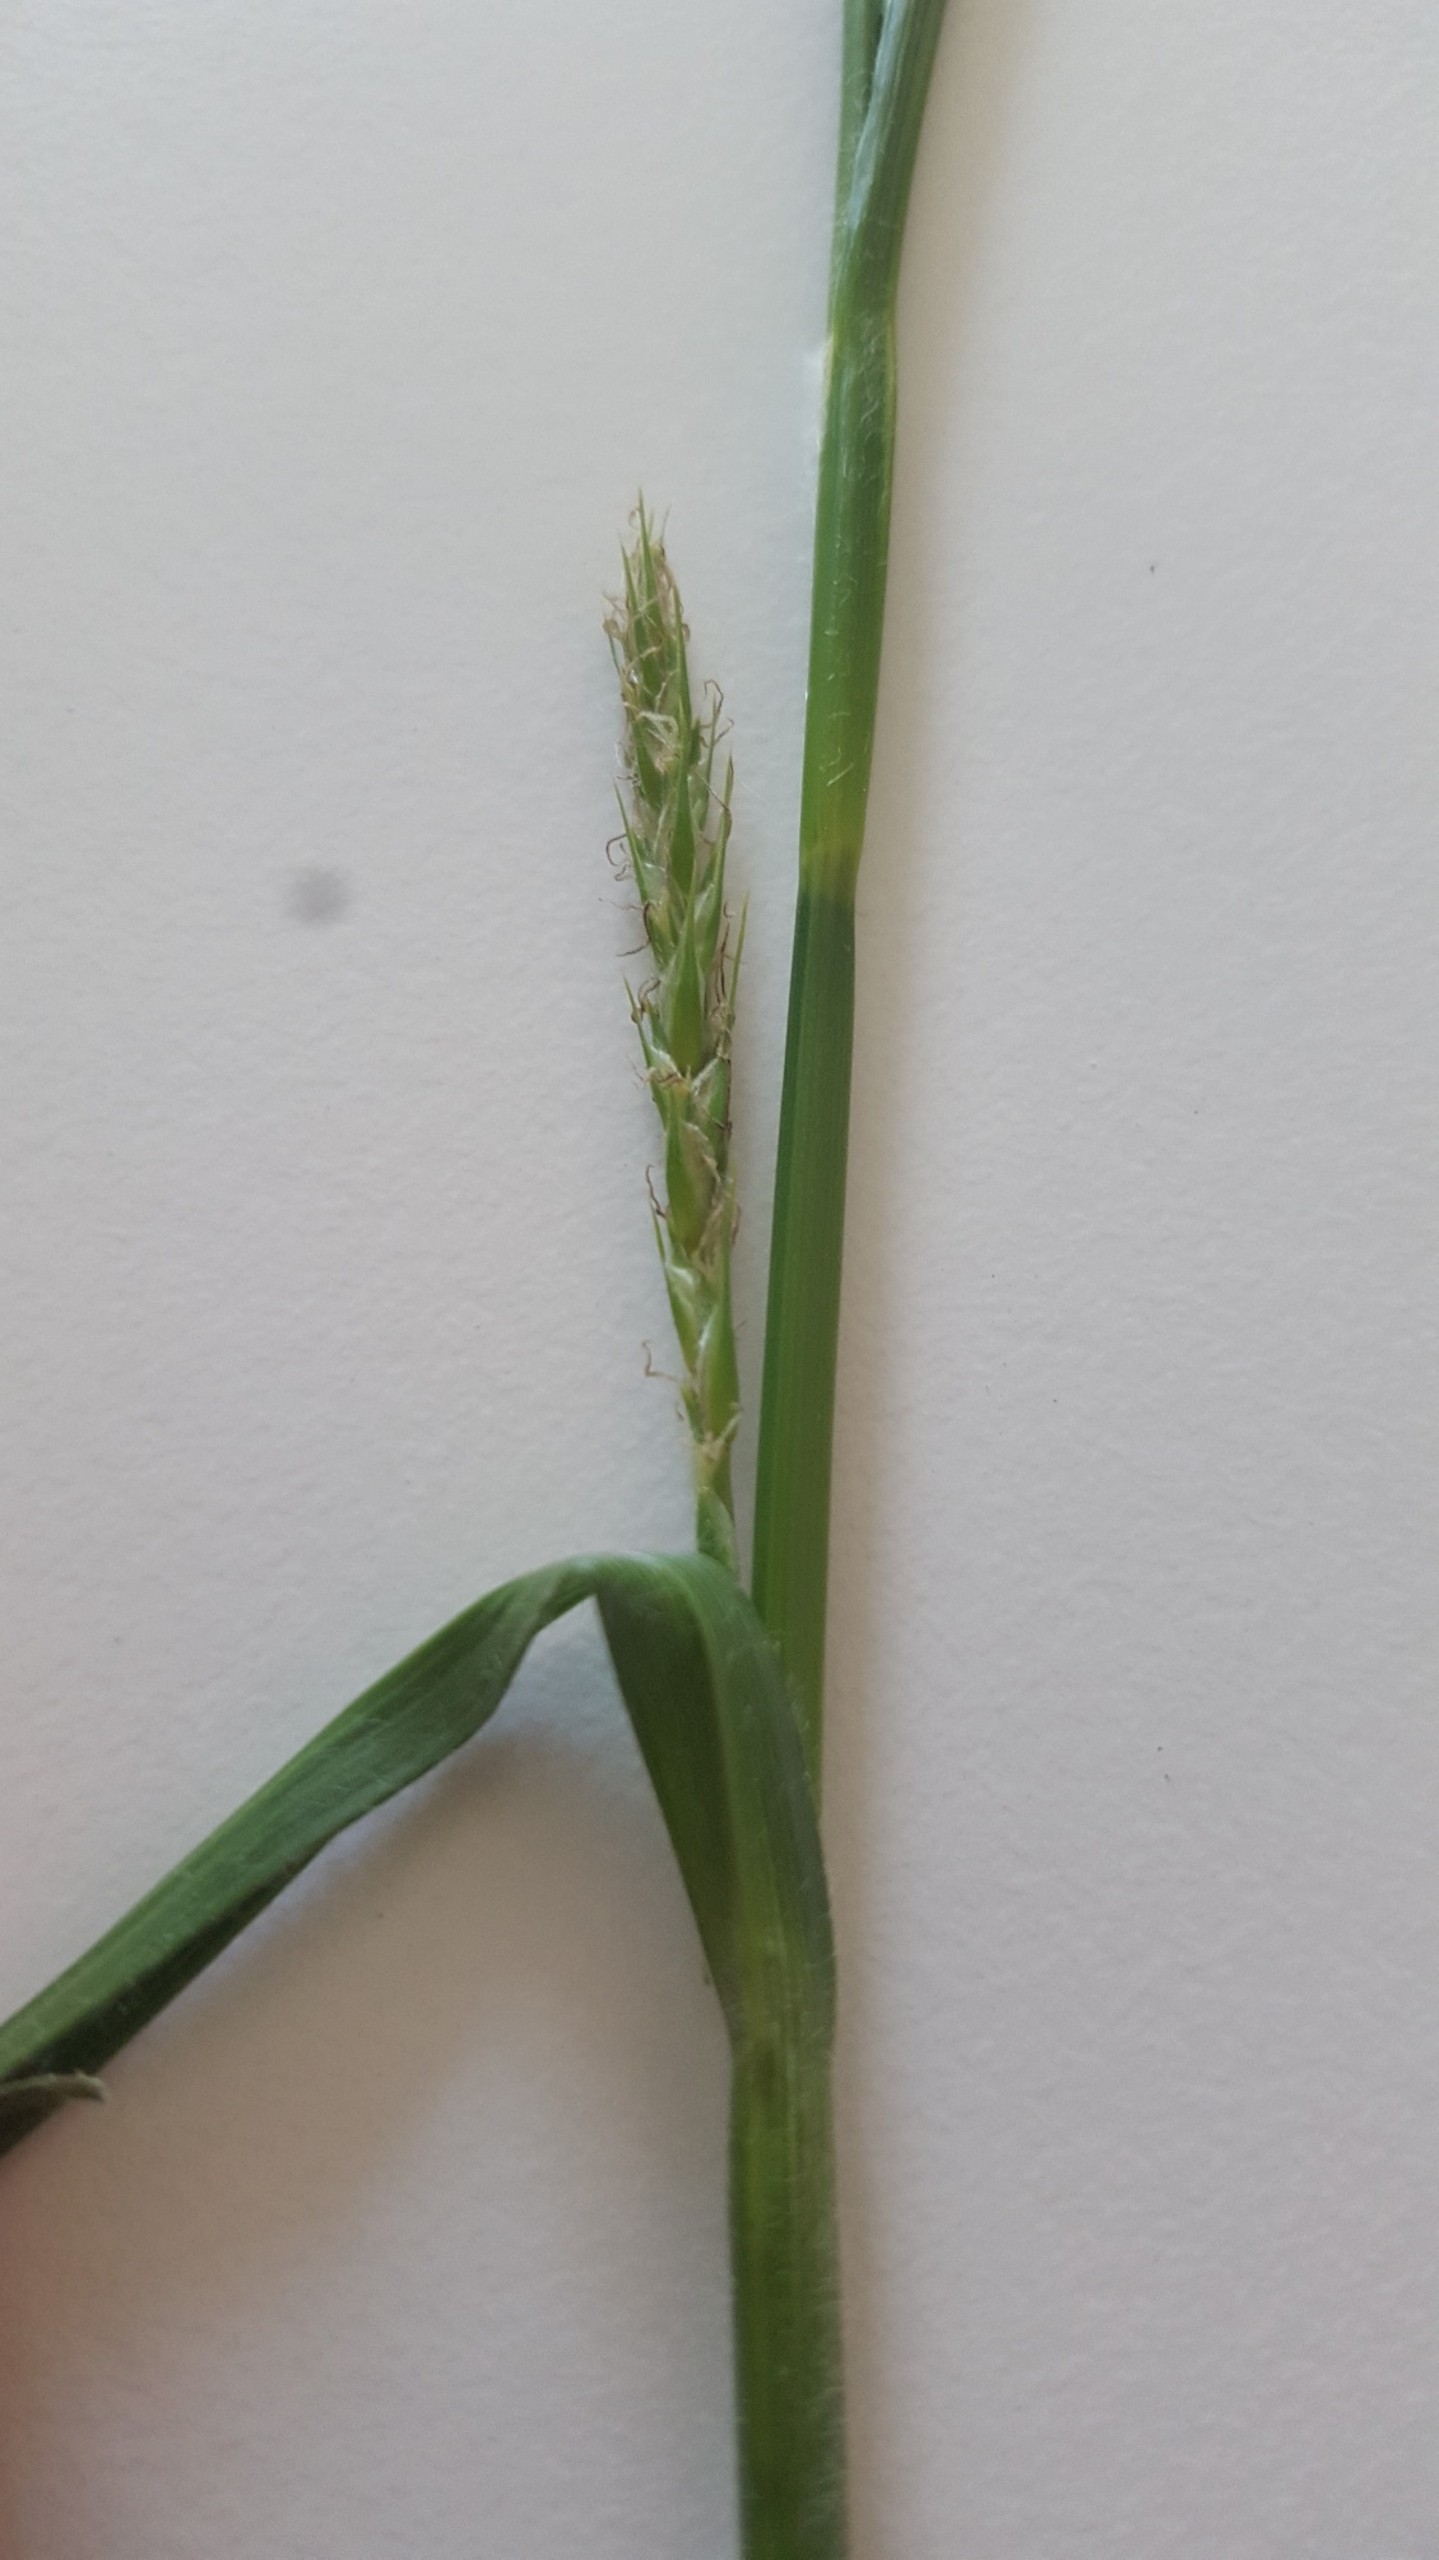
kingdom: Plantae
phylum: Tracheophyta
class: Liliopsida
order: Poales
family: Cyperaceae
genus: Carex
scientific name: Carex hirta
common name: Håret star
